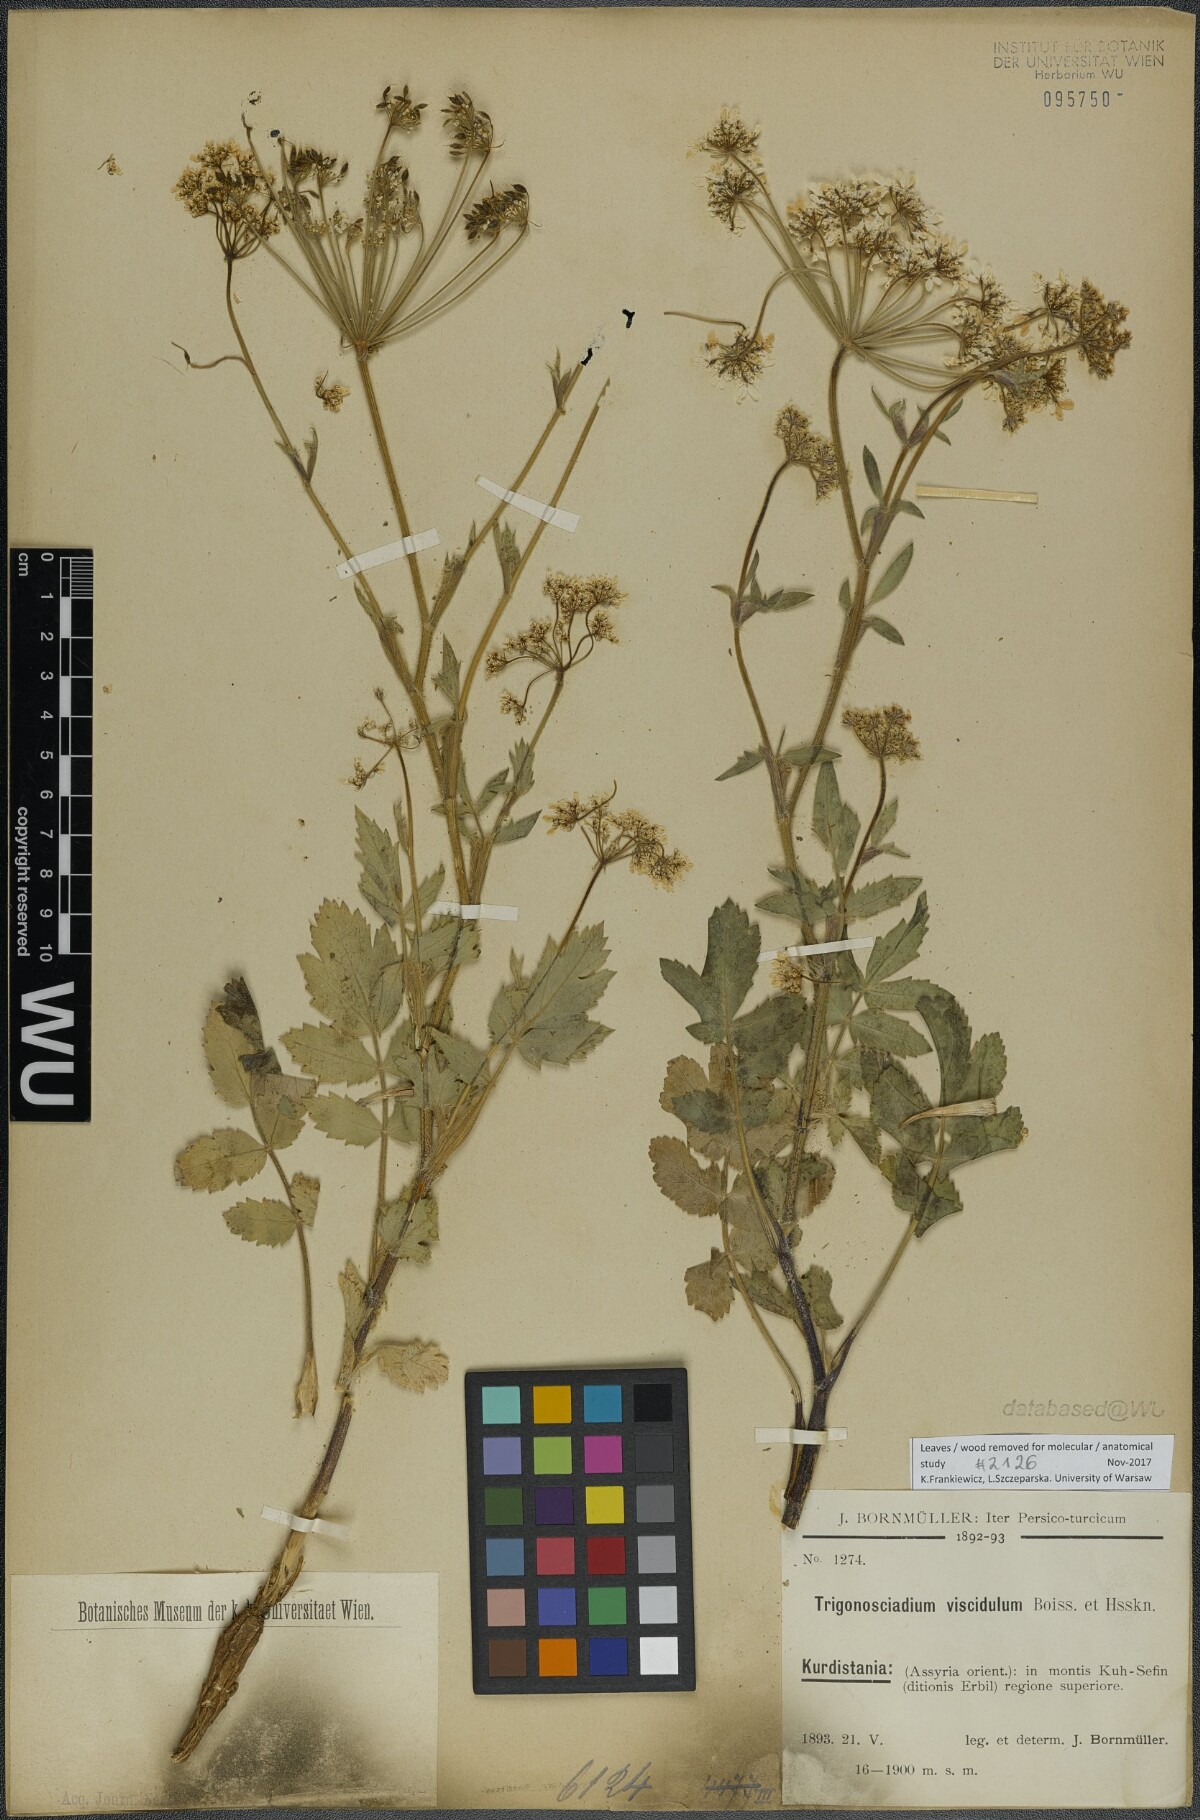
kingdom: Plantae
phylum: Tracheophyta
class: Magnoliopsida
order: Apiales
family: Apiaceae
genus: Trigonosciadium
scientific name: Trigonosciadium viscidulum
